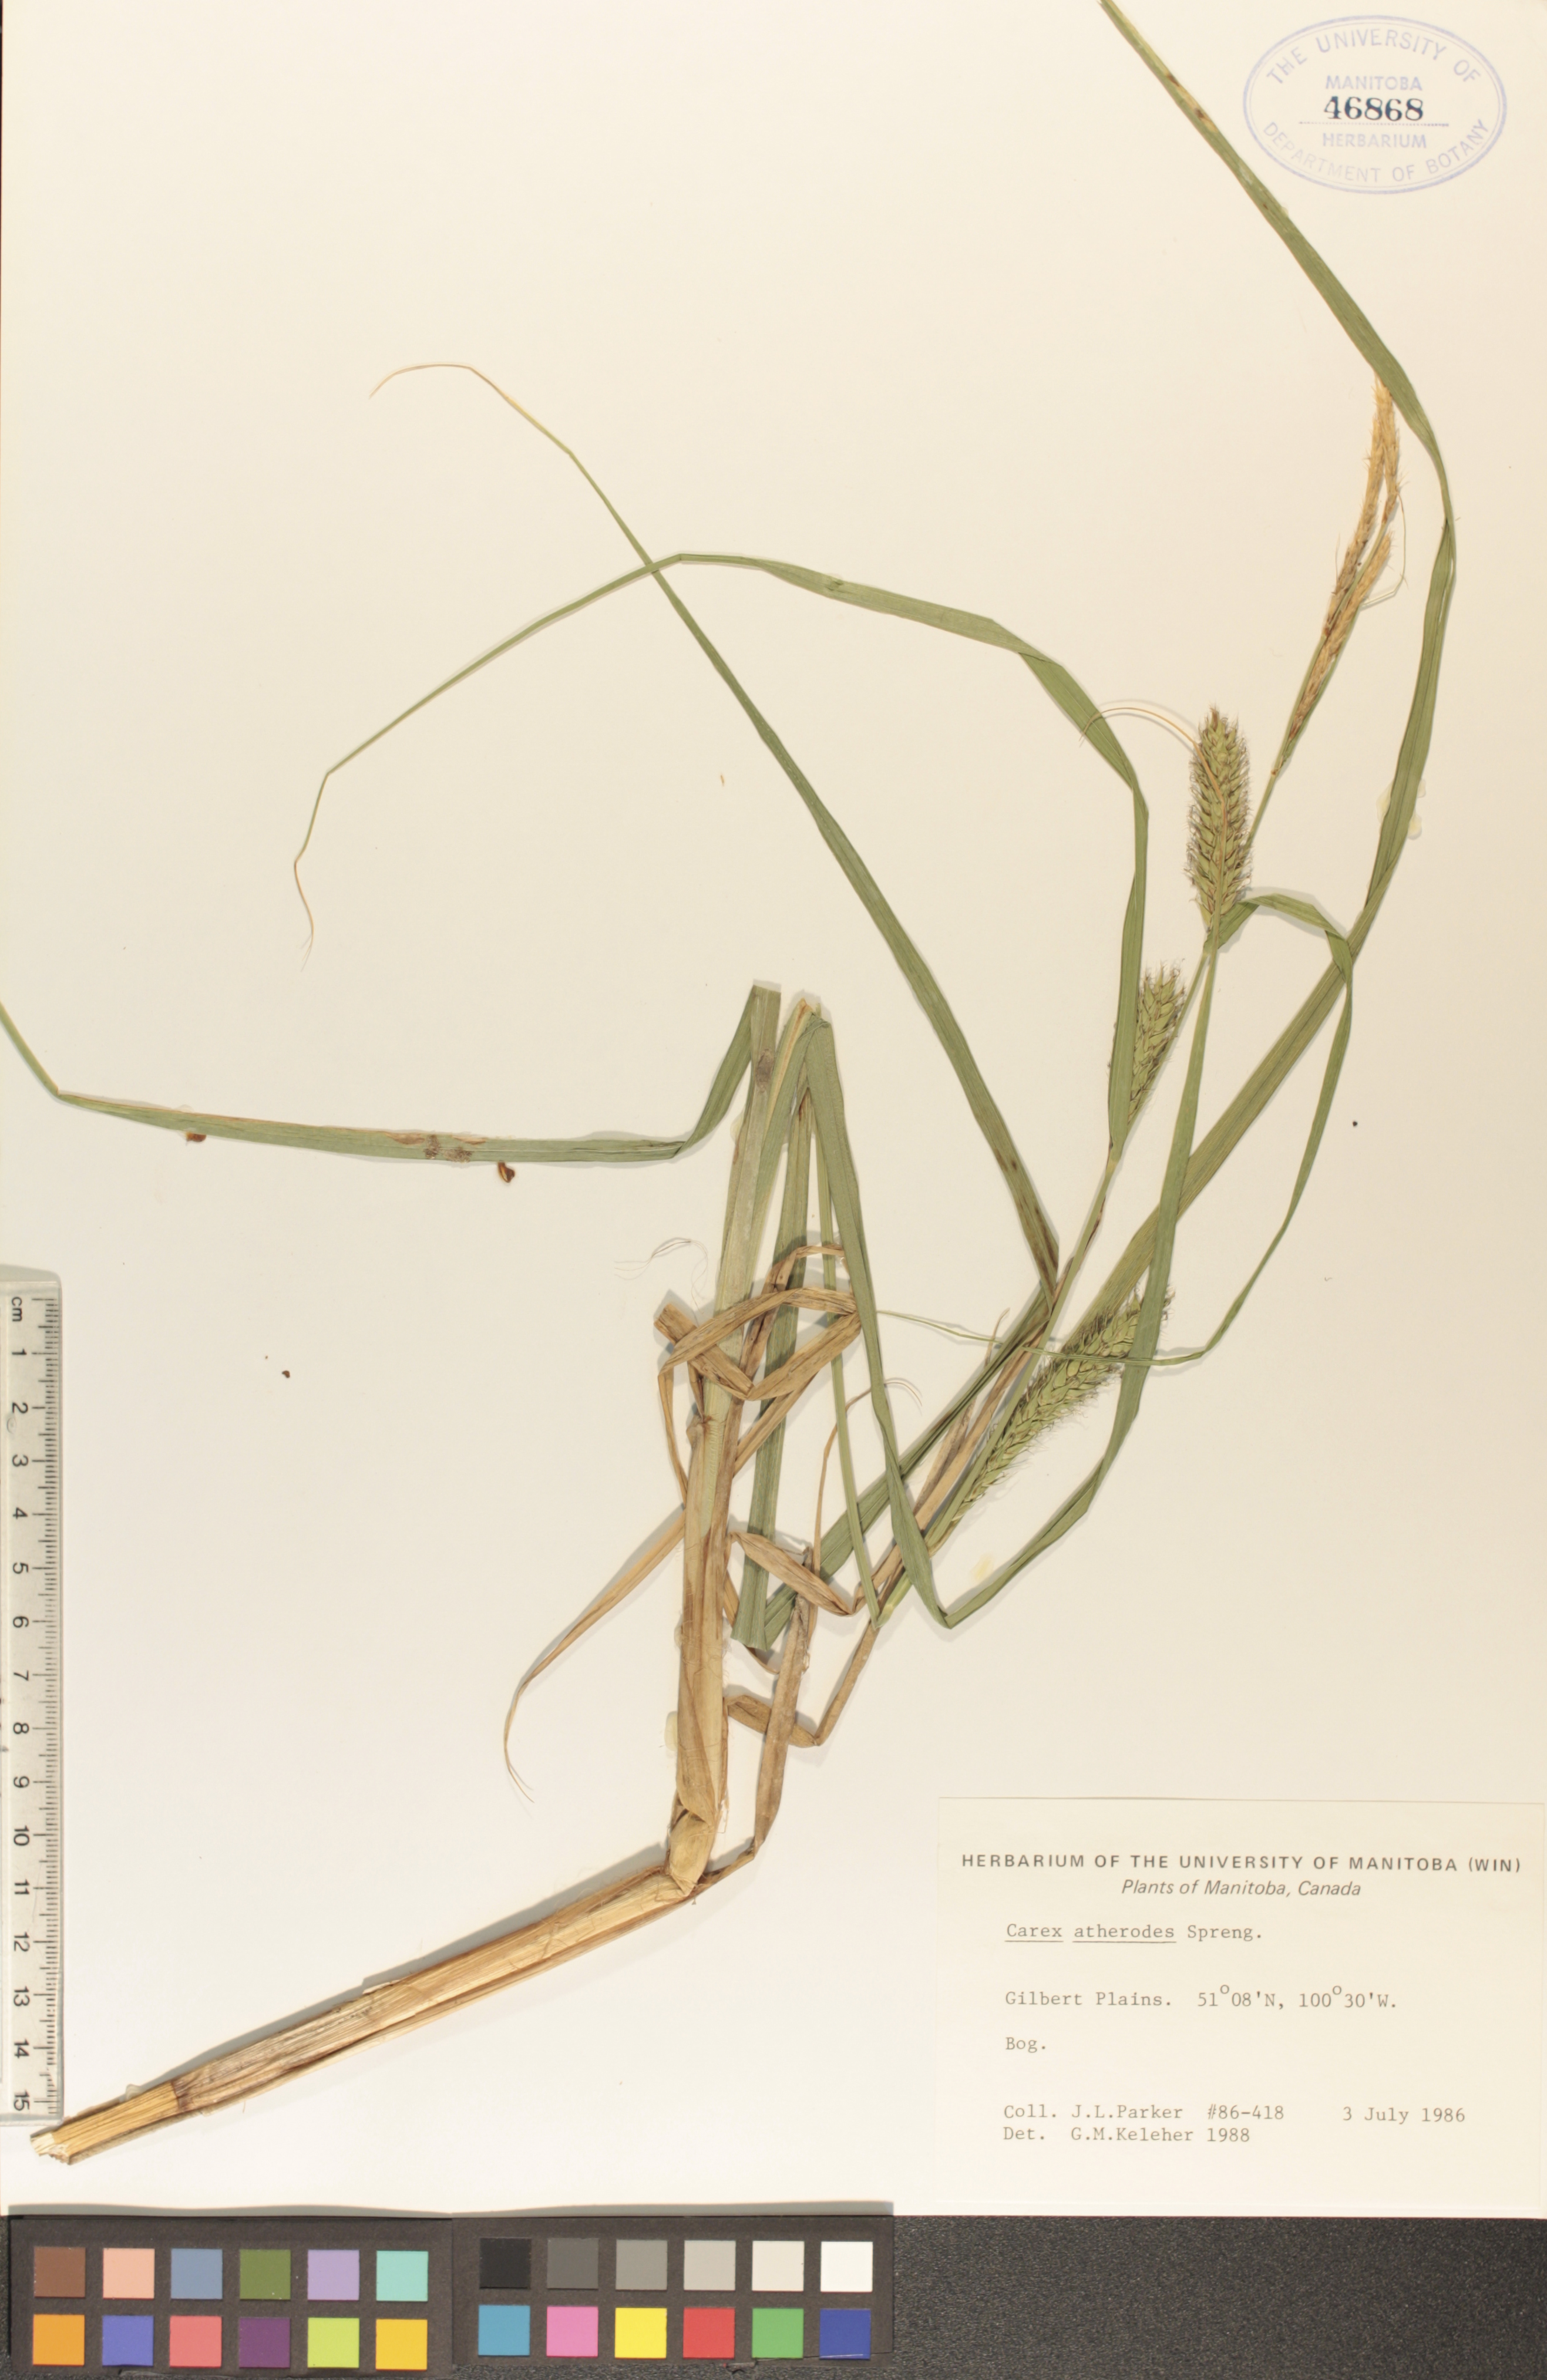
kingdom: Plantae
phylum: Tracheophyta
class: Liliopsida
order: Poales
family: Cyperaceae
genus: Carex
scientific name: Carex atherodes
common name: Wheat sedge
